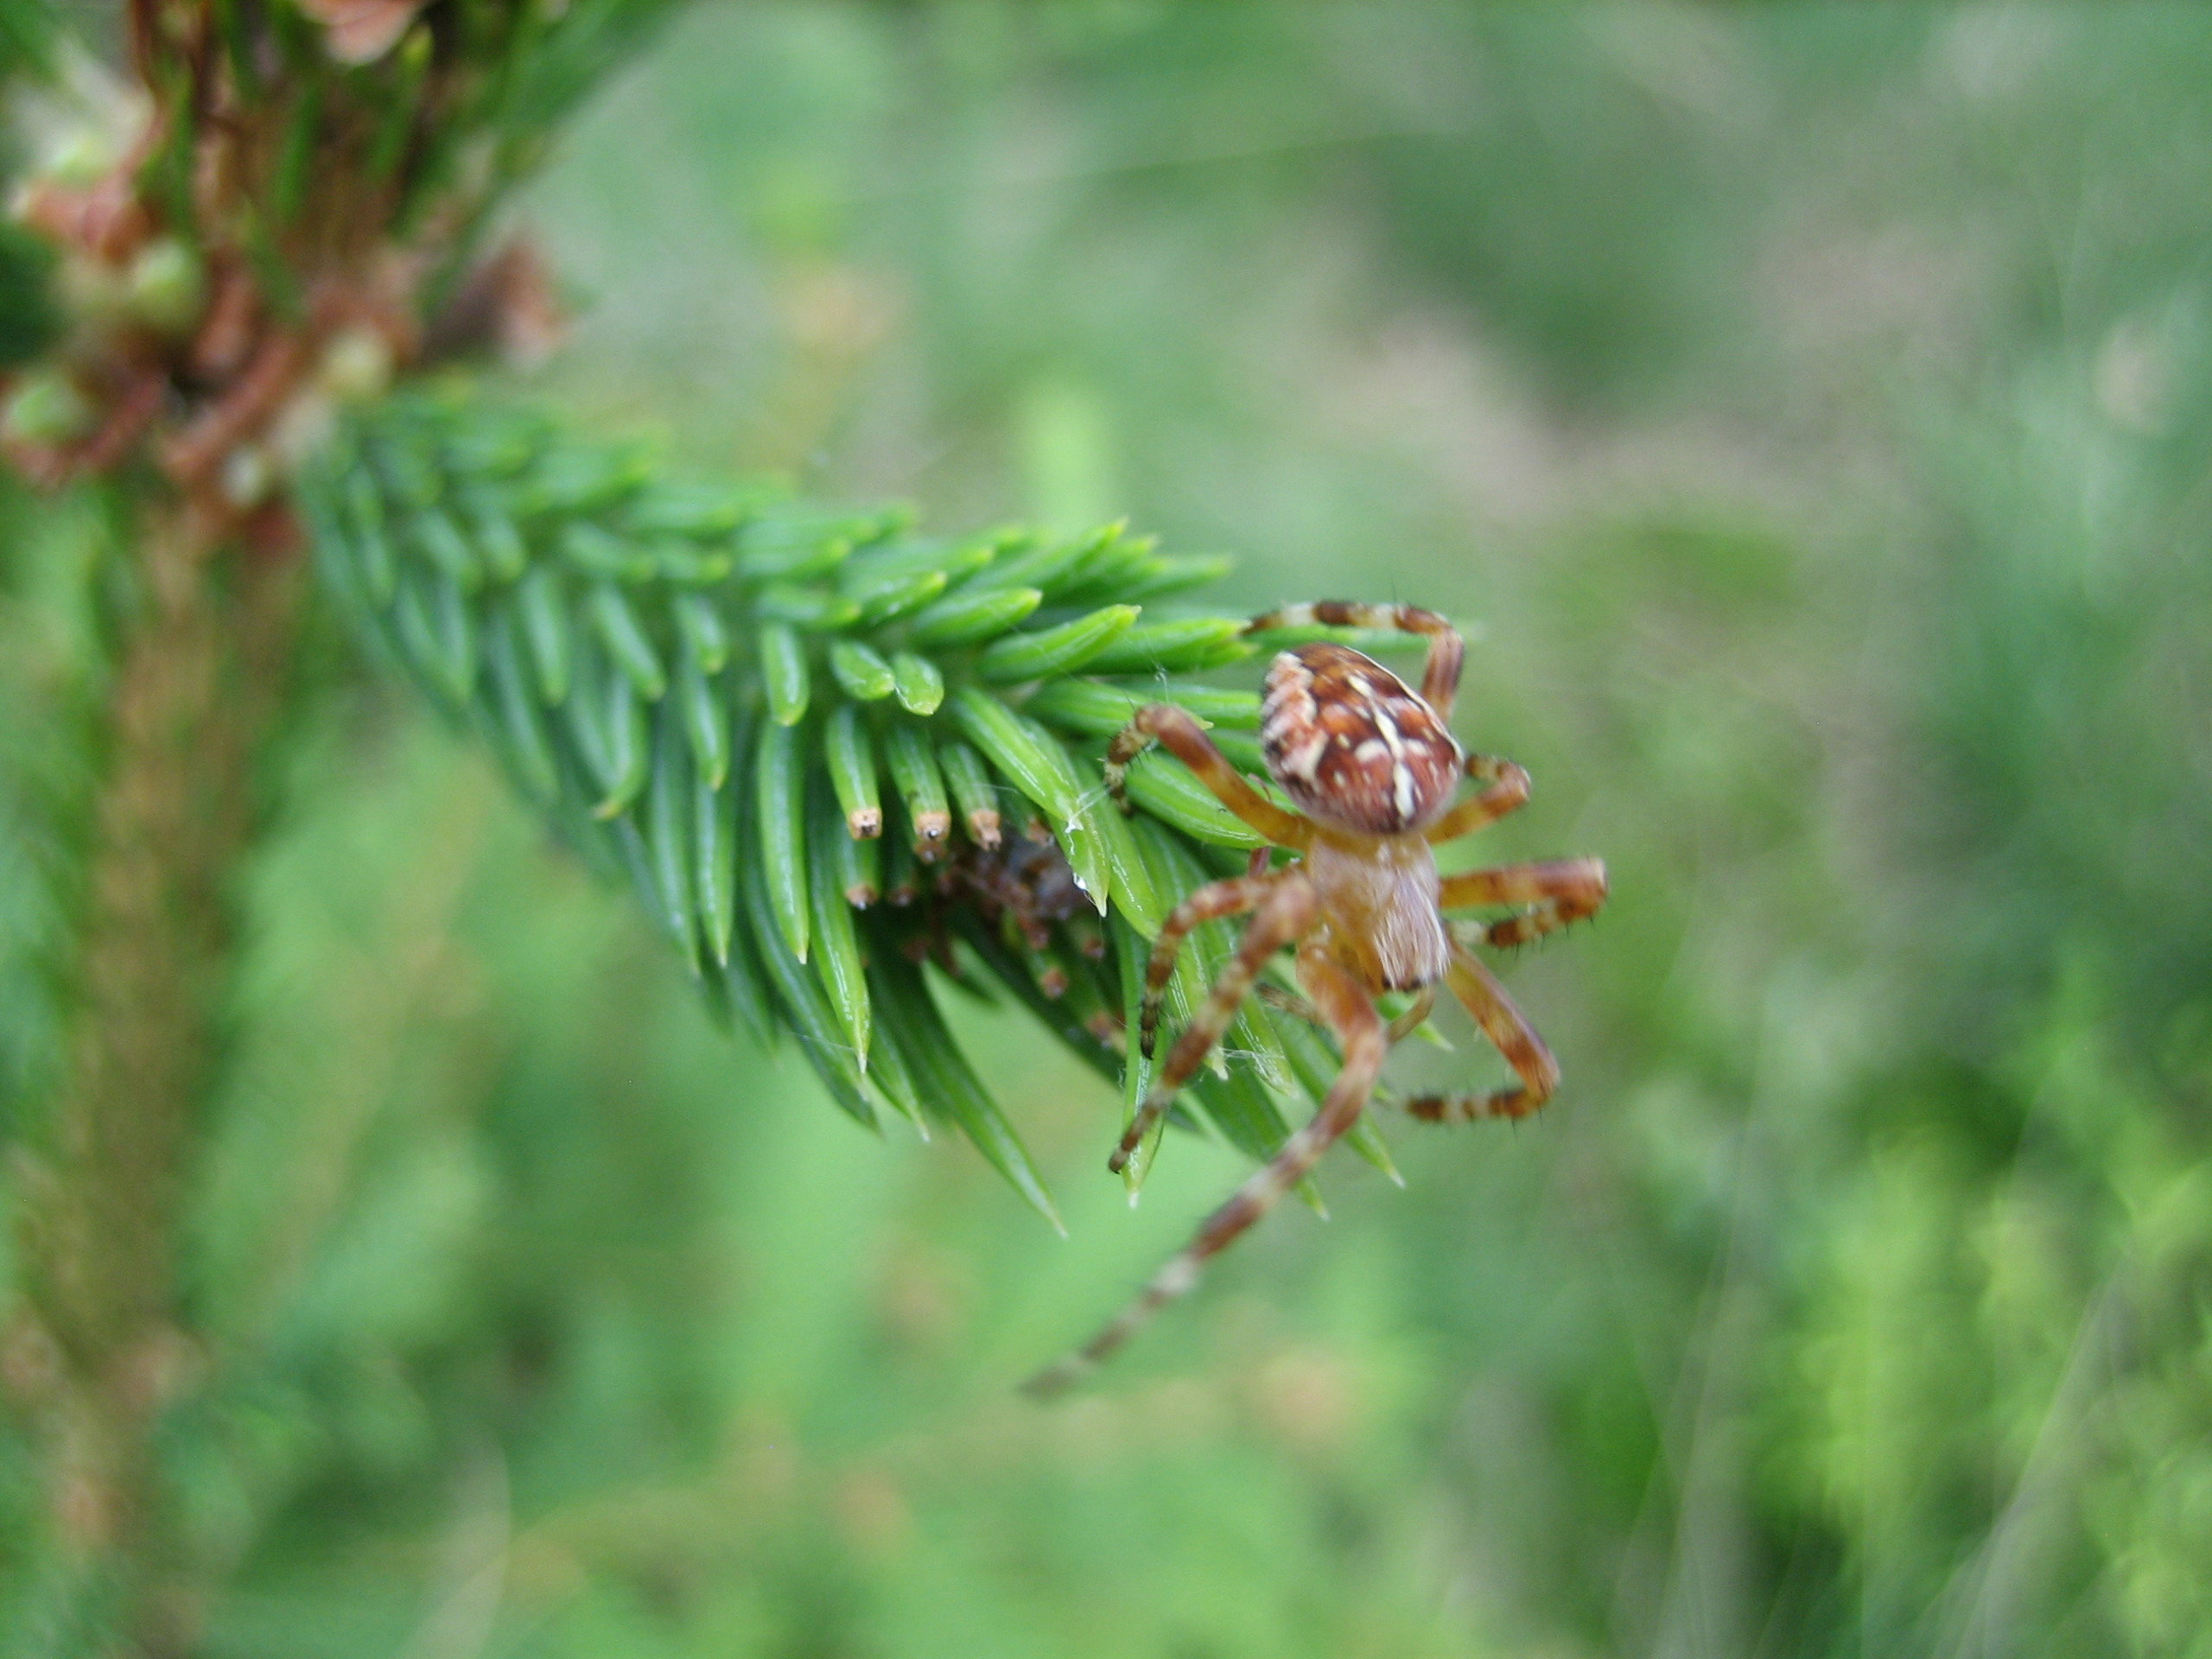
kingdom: Animalia
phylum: Arthropoda
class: Arachnida
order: Araneae
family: Araneidae
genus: Araneus
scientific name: Araneus diadematus
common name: Korsedderkop
